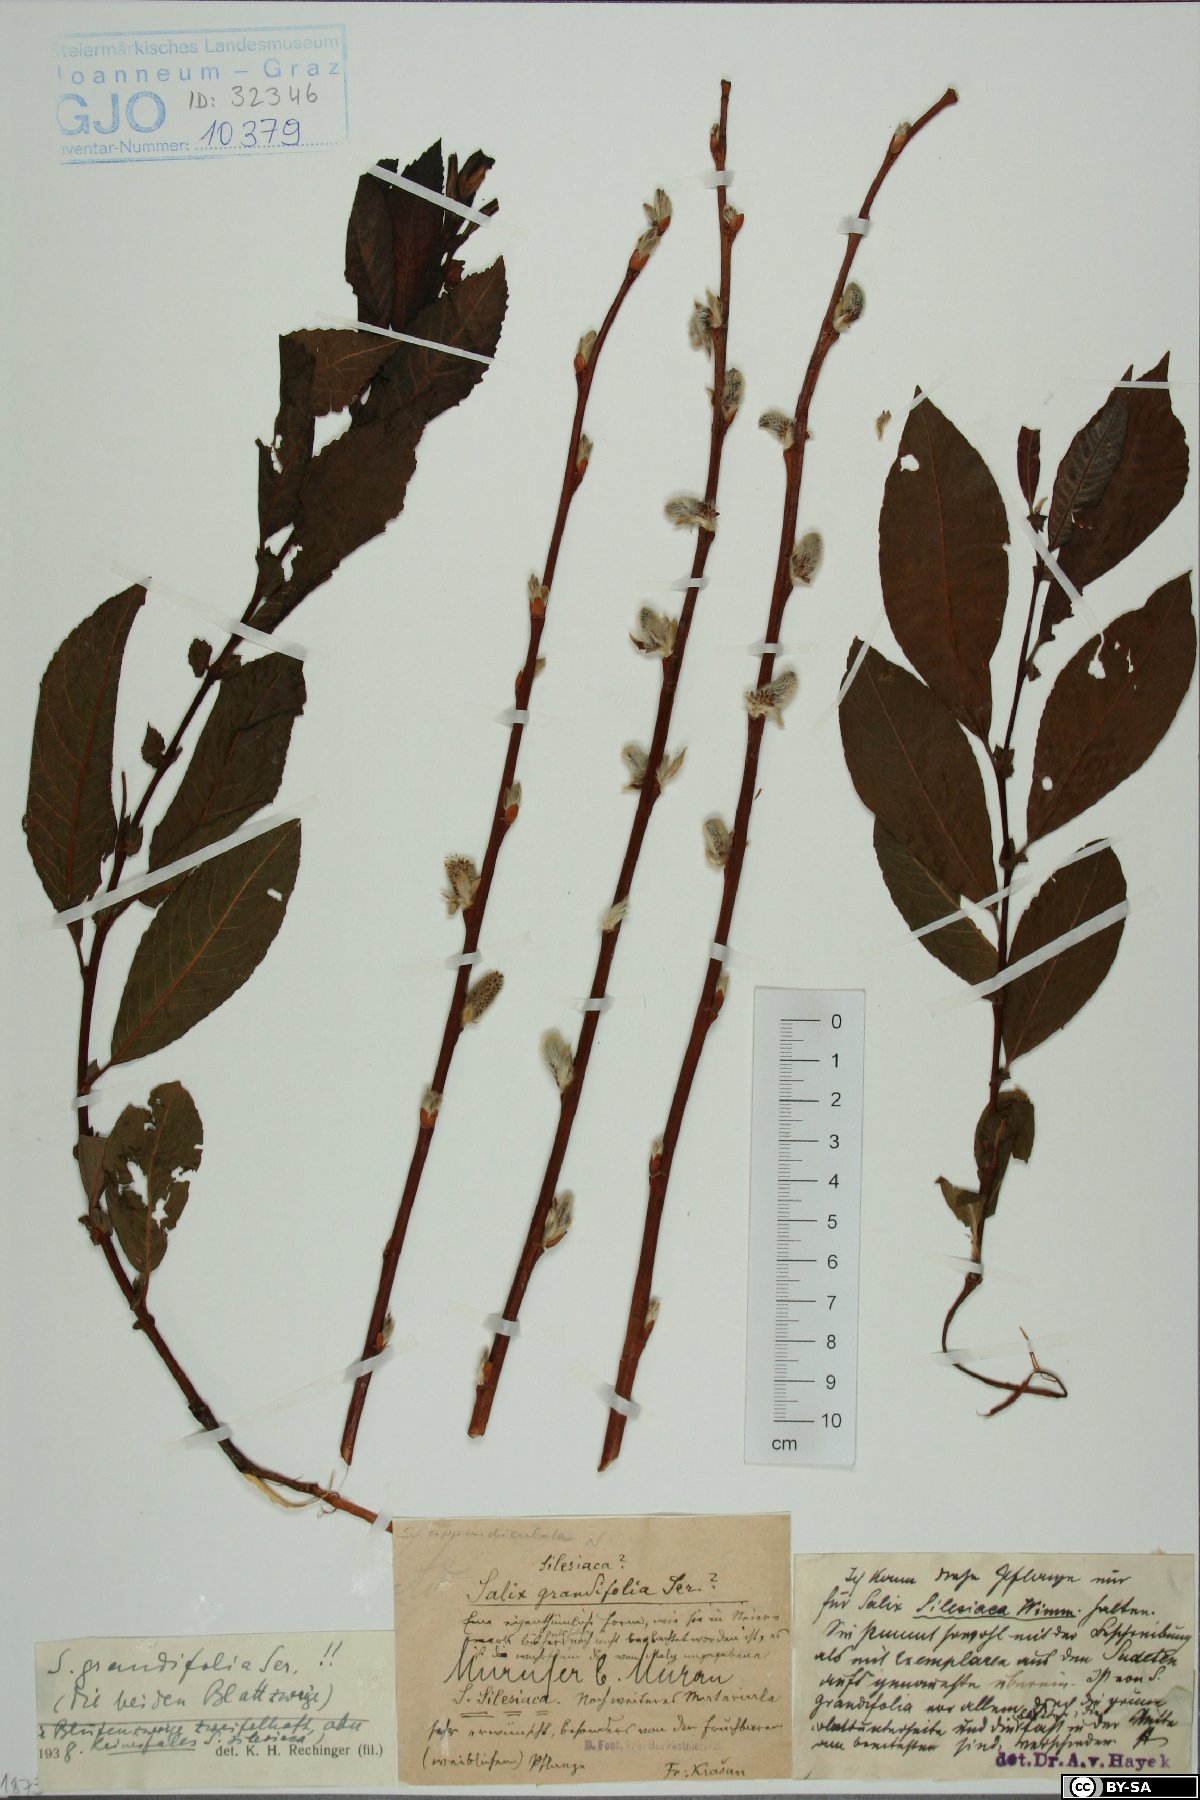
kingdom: Plantae
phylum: Tracheophyta
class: Magnoliopsida
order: Malpighiales
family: Salicaceae
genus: Salix
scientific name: Salix appendiculata
